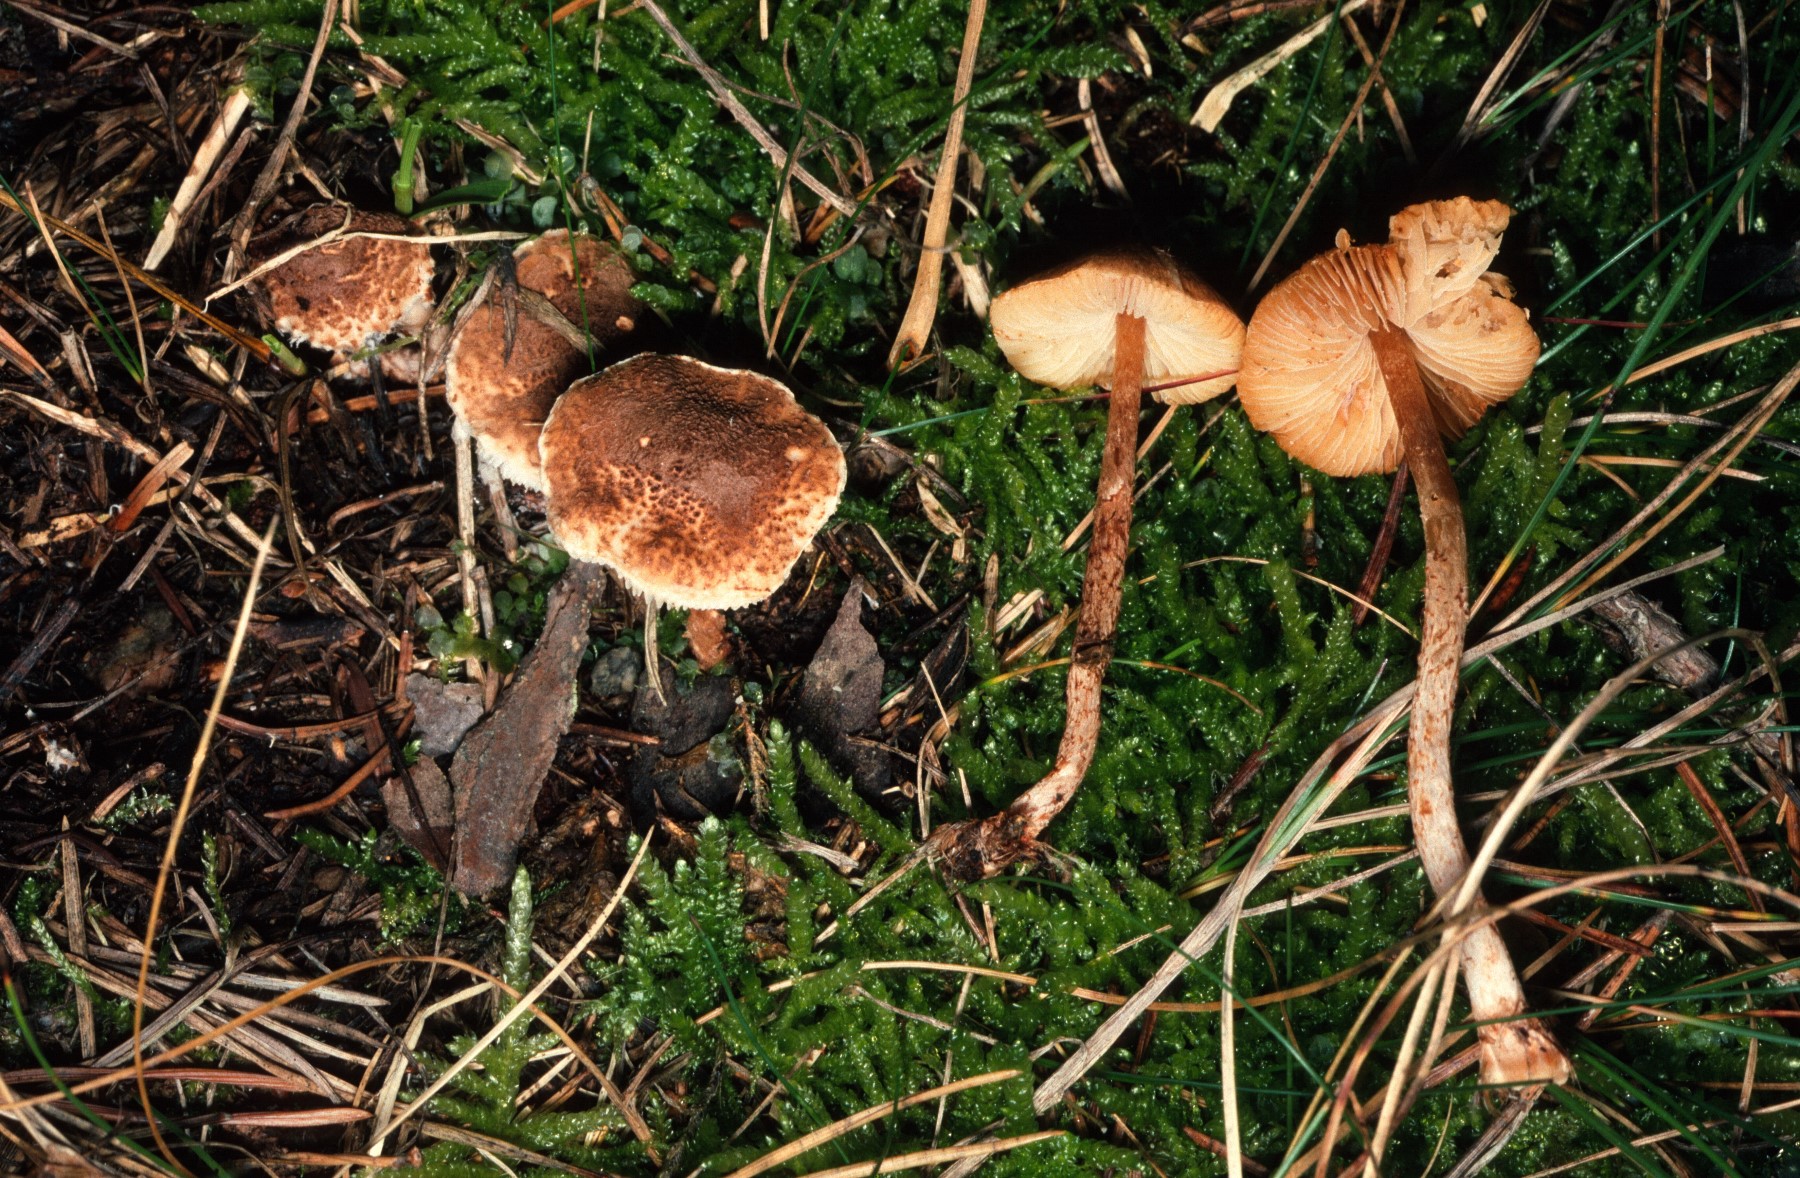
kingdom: Fungi
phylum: Basidiomycota
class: Agaricomycetes
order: Agaricales
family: Agaricaceae
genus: Lepiota
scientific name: Lepiota castanea
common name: kastaniebrun parasolhat
